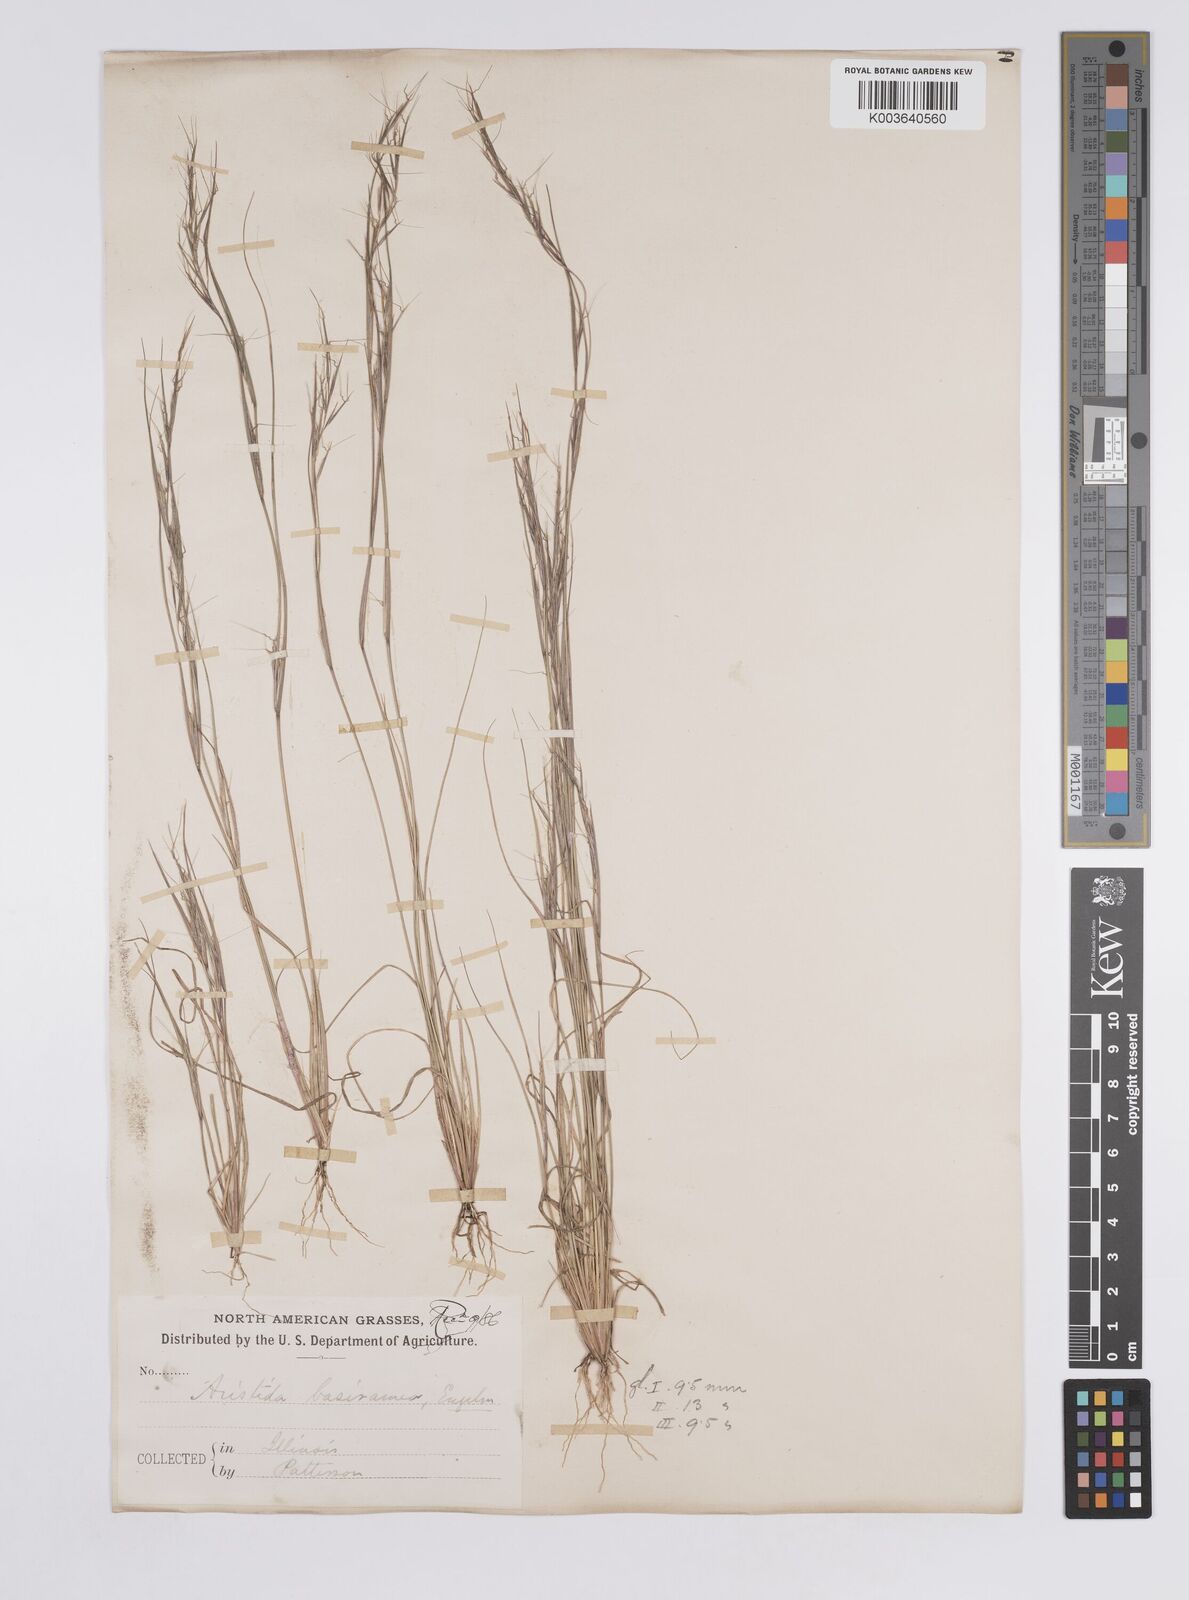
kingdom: Plantae
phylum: Tracheophyta
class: Liliopsida
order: Poales
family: Poaceae
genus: Aristida
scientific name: Aristida basiramea
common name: Forked three-awned grass
